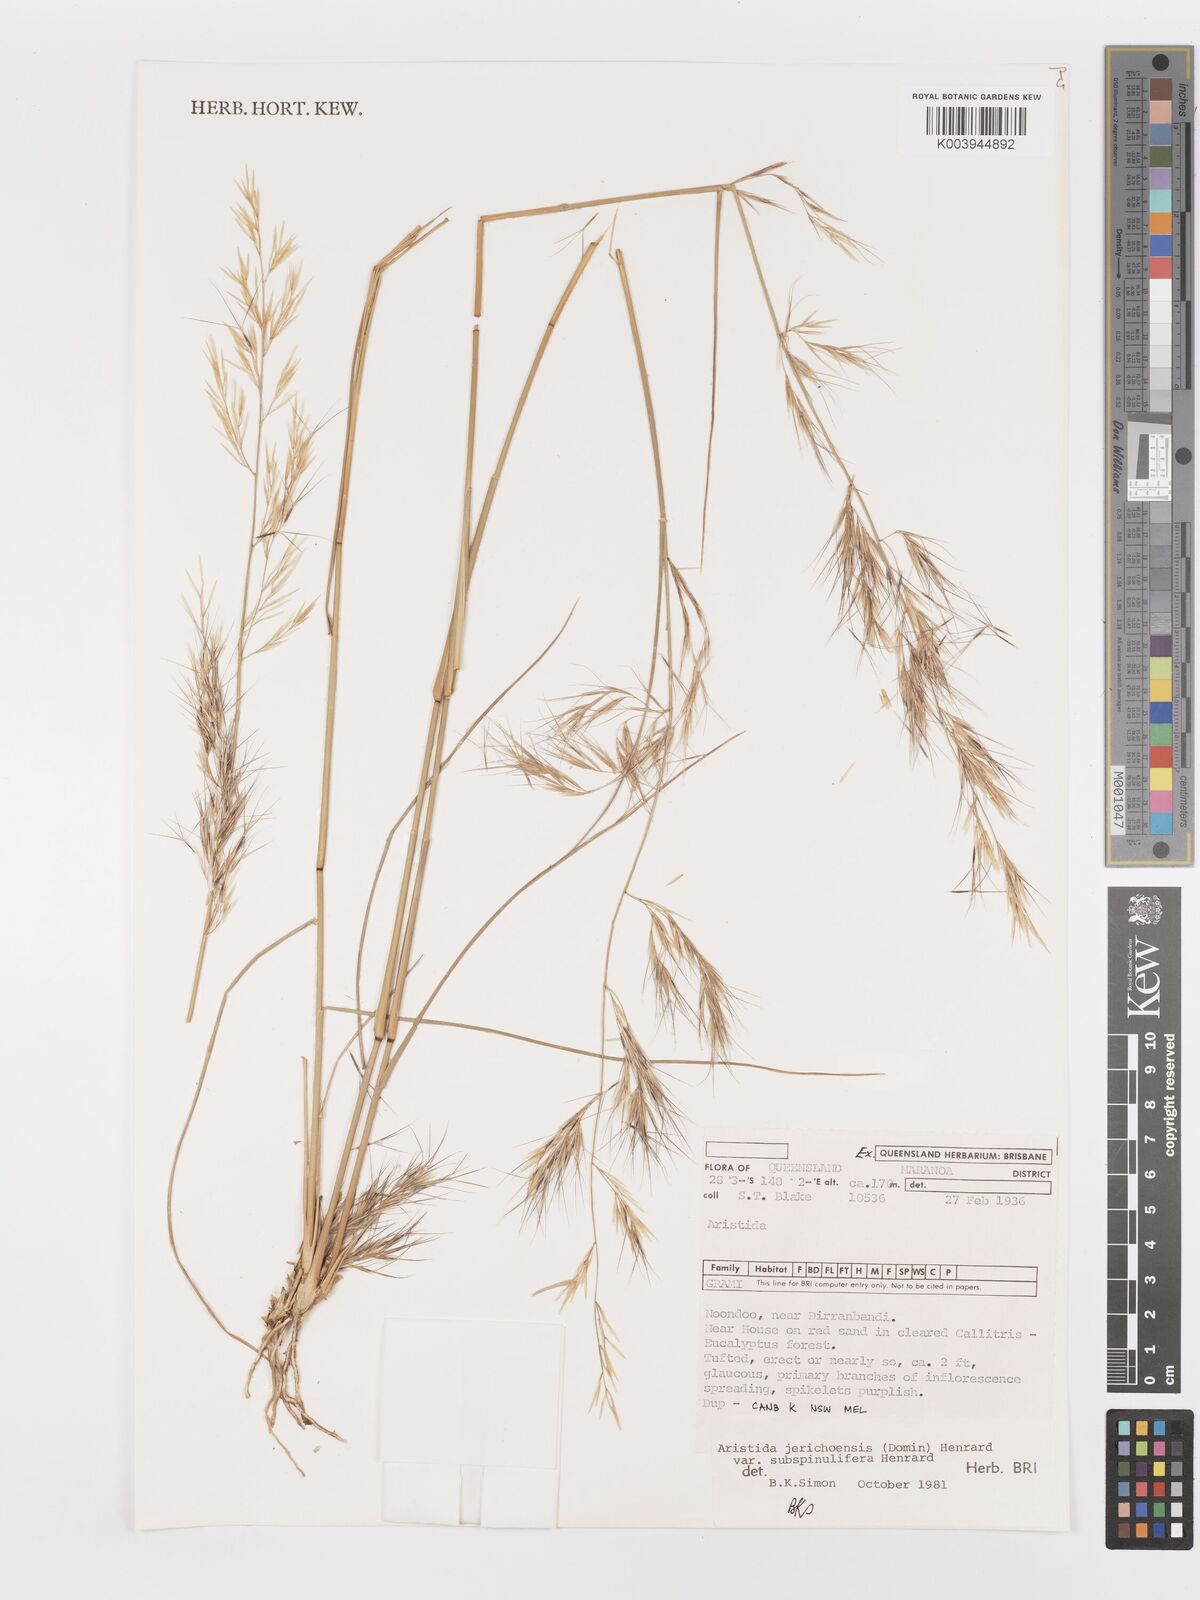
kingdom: Plantae
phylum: Tracheophyta
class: Liliopsida
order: Poales
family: Poaceae
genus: Aristida
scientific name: Aristida jerichoensis
